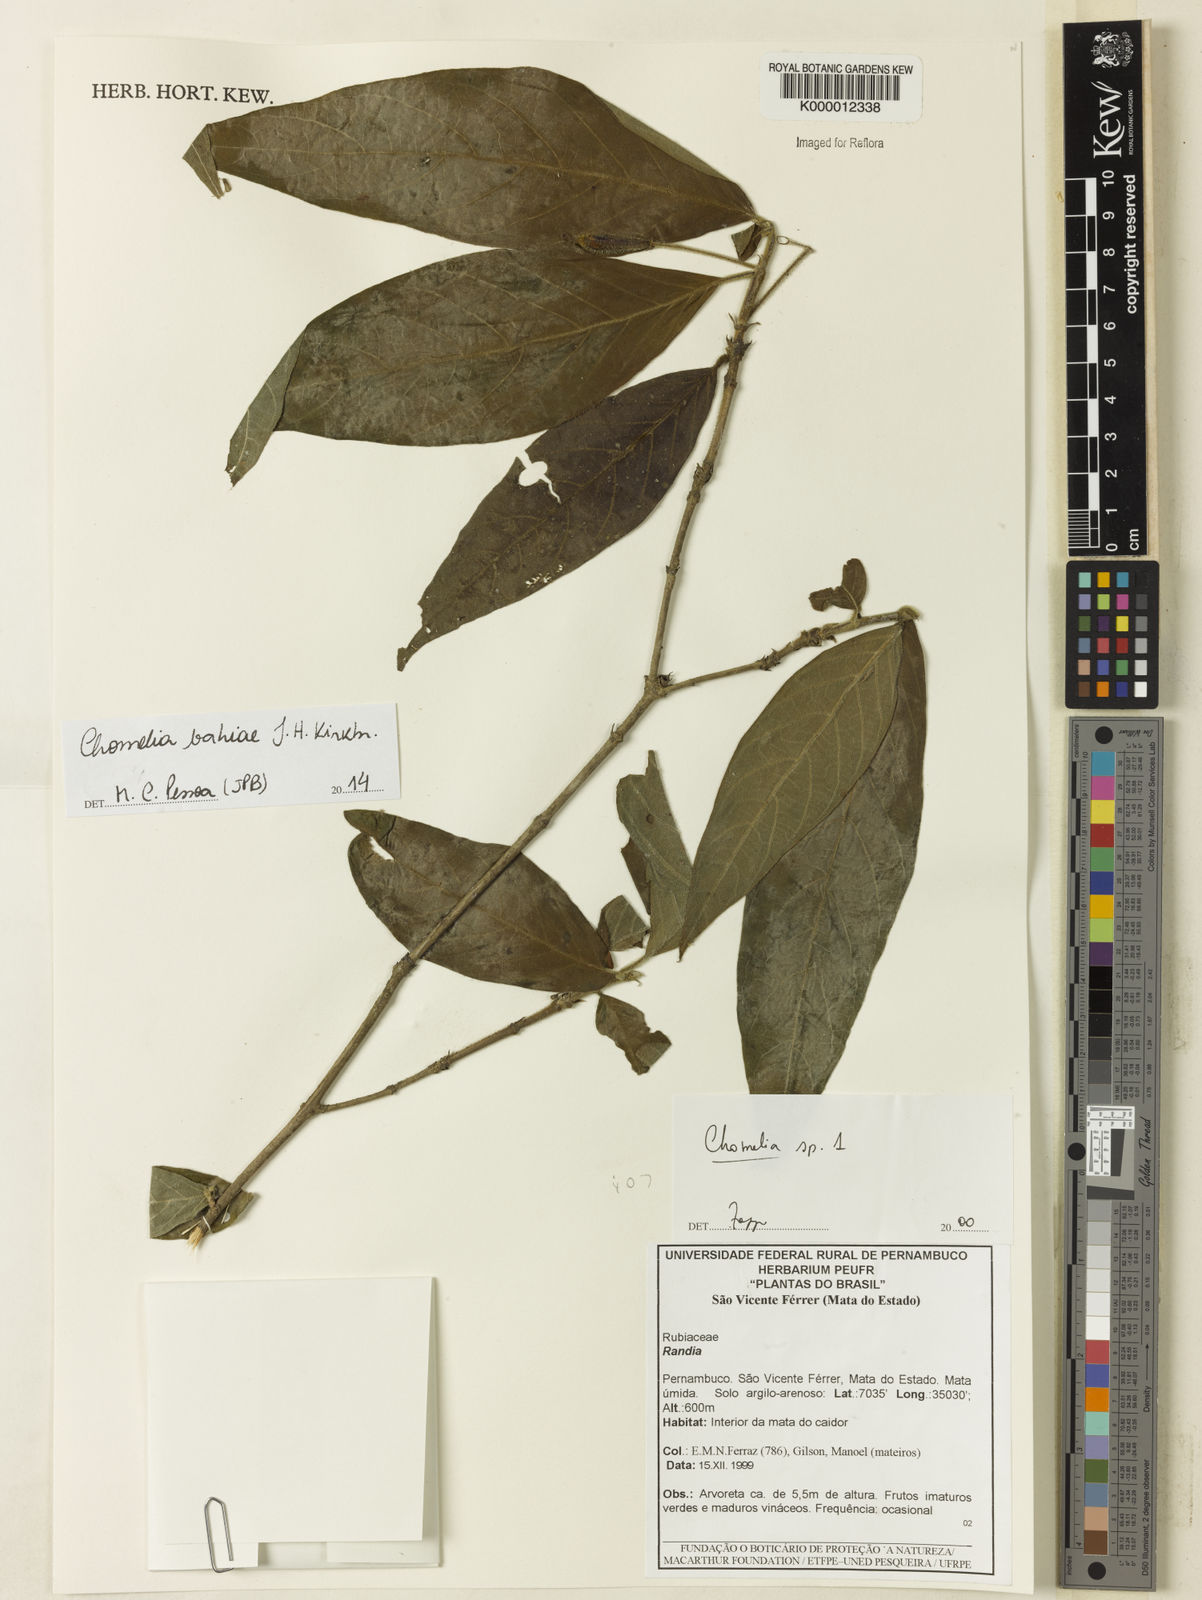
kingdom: Plantae
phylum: Tracheophyta
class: Magnoliopsida
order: Gentianales
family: Rubiaceae
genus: Chomelia
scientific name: Chomelia
